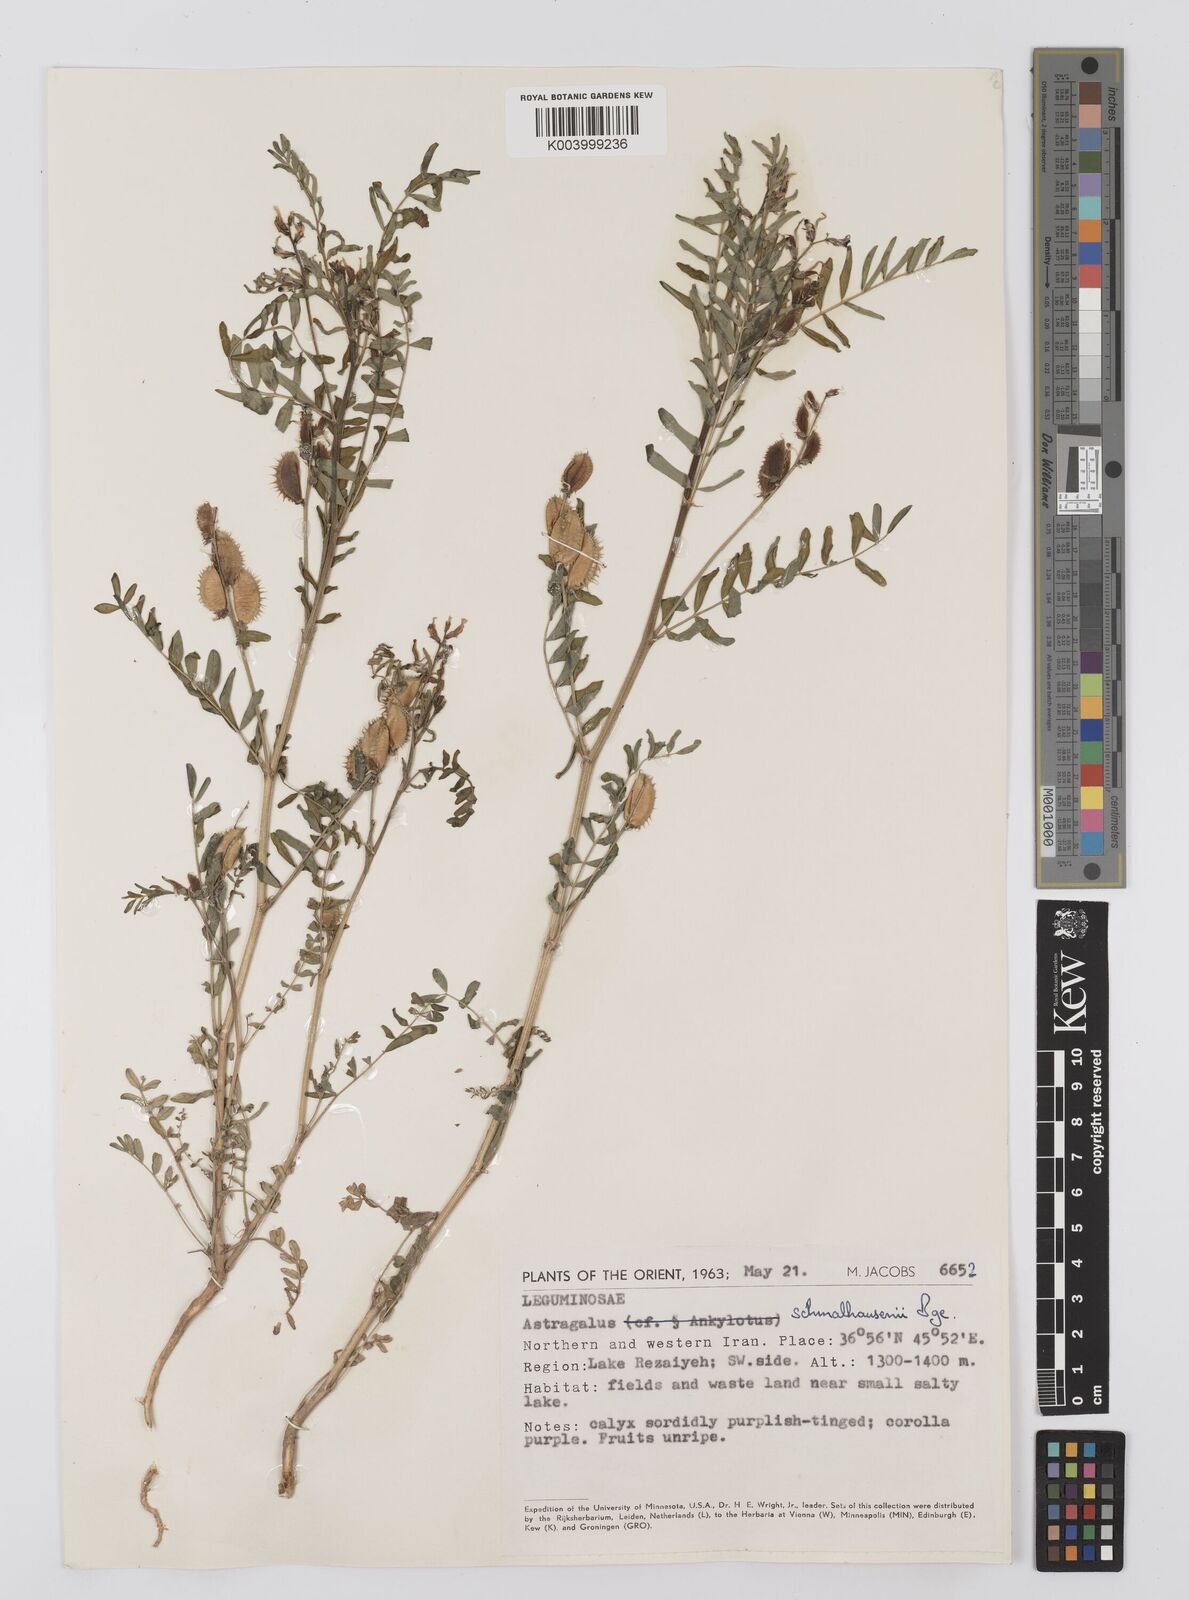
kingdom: Plantae
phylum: Tracheophyta
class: Magnoliopsida
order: Fabales
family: Fabaceae
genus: Astragalus
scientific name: Astragalus schmalhausenii
